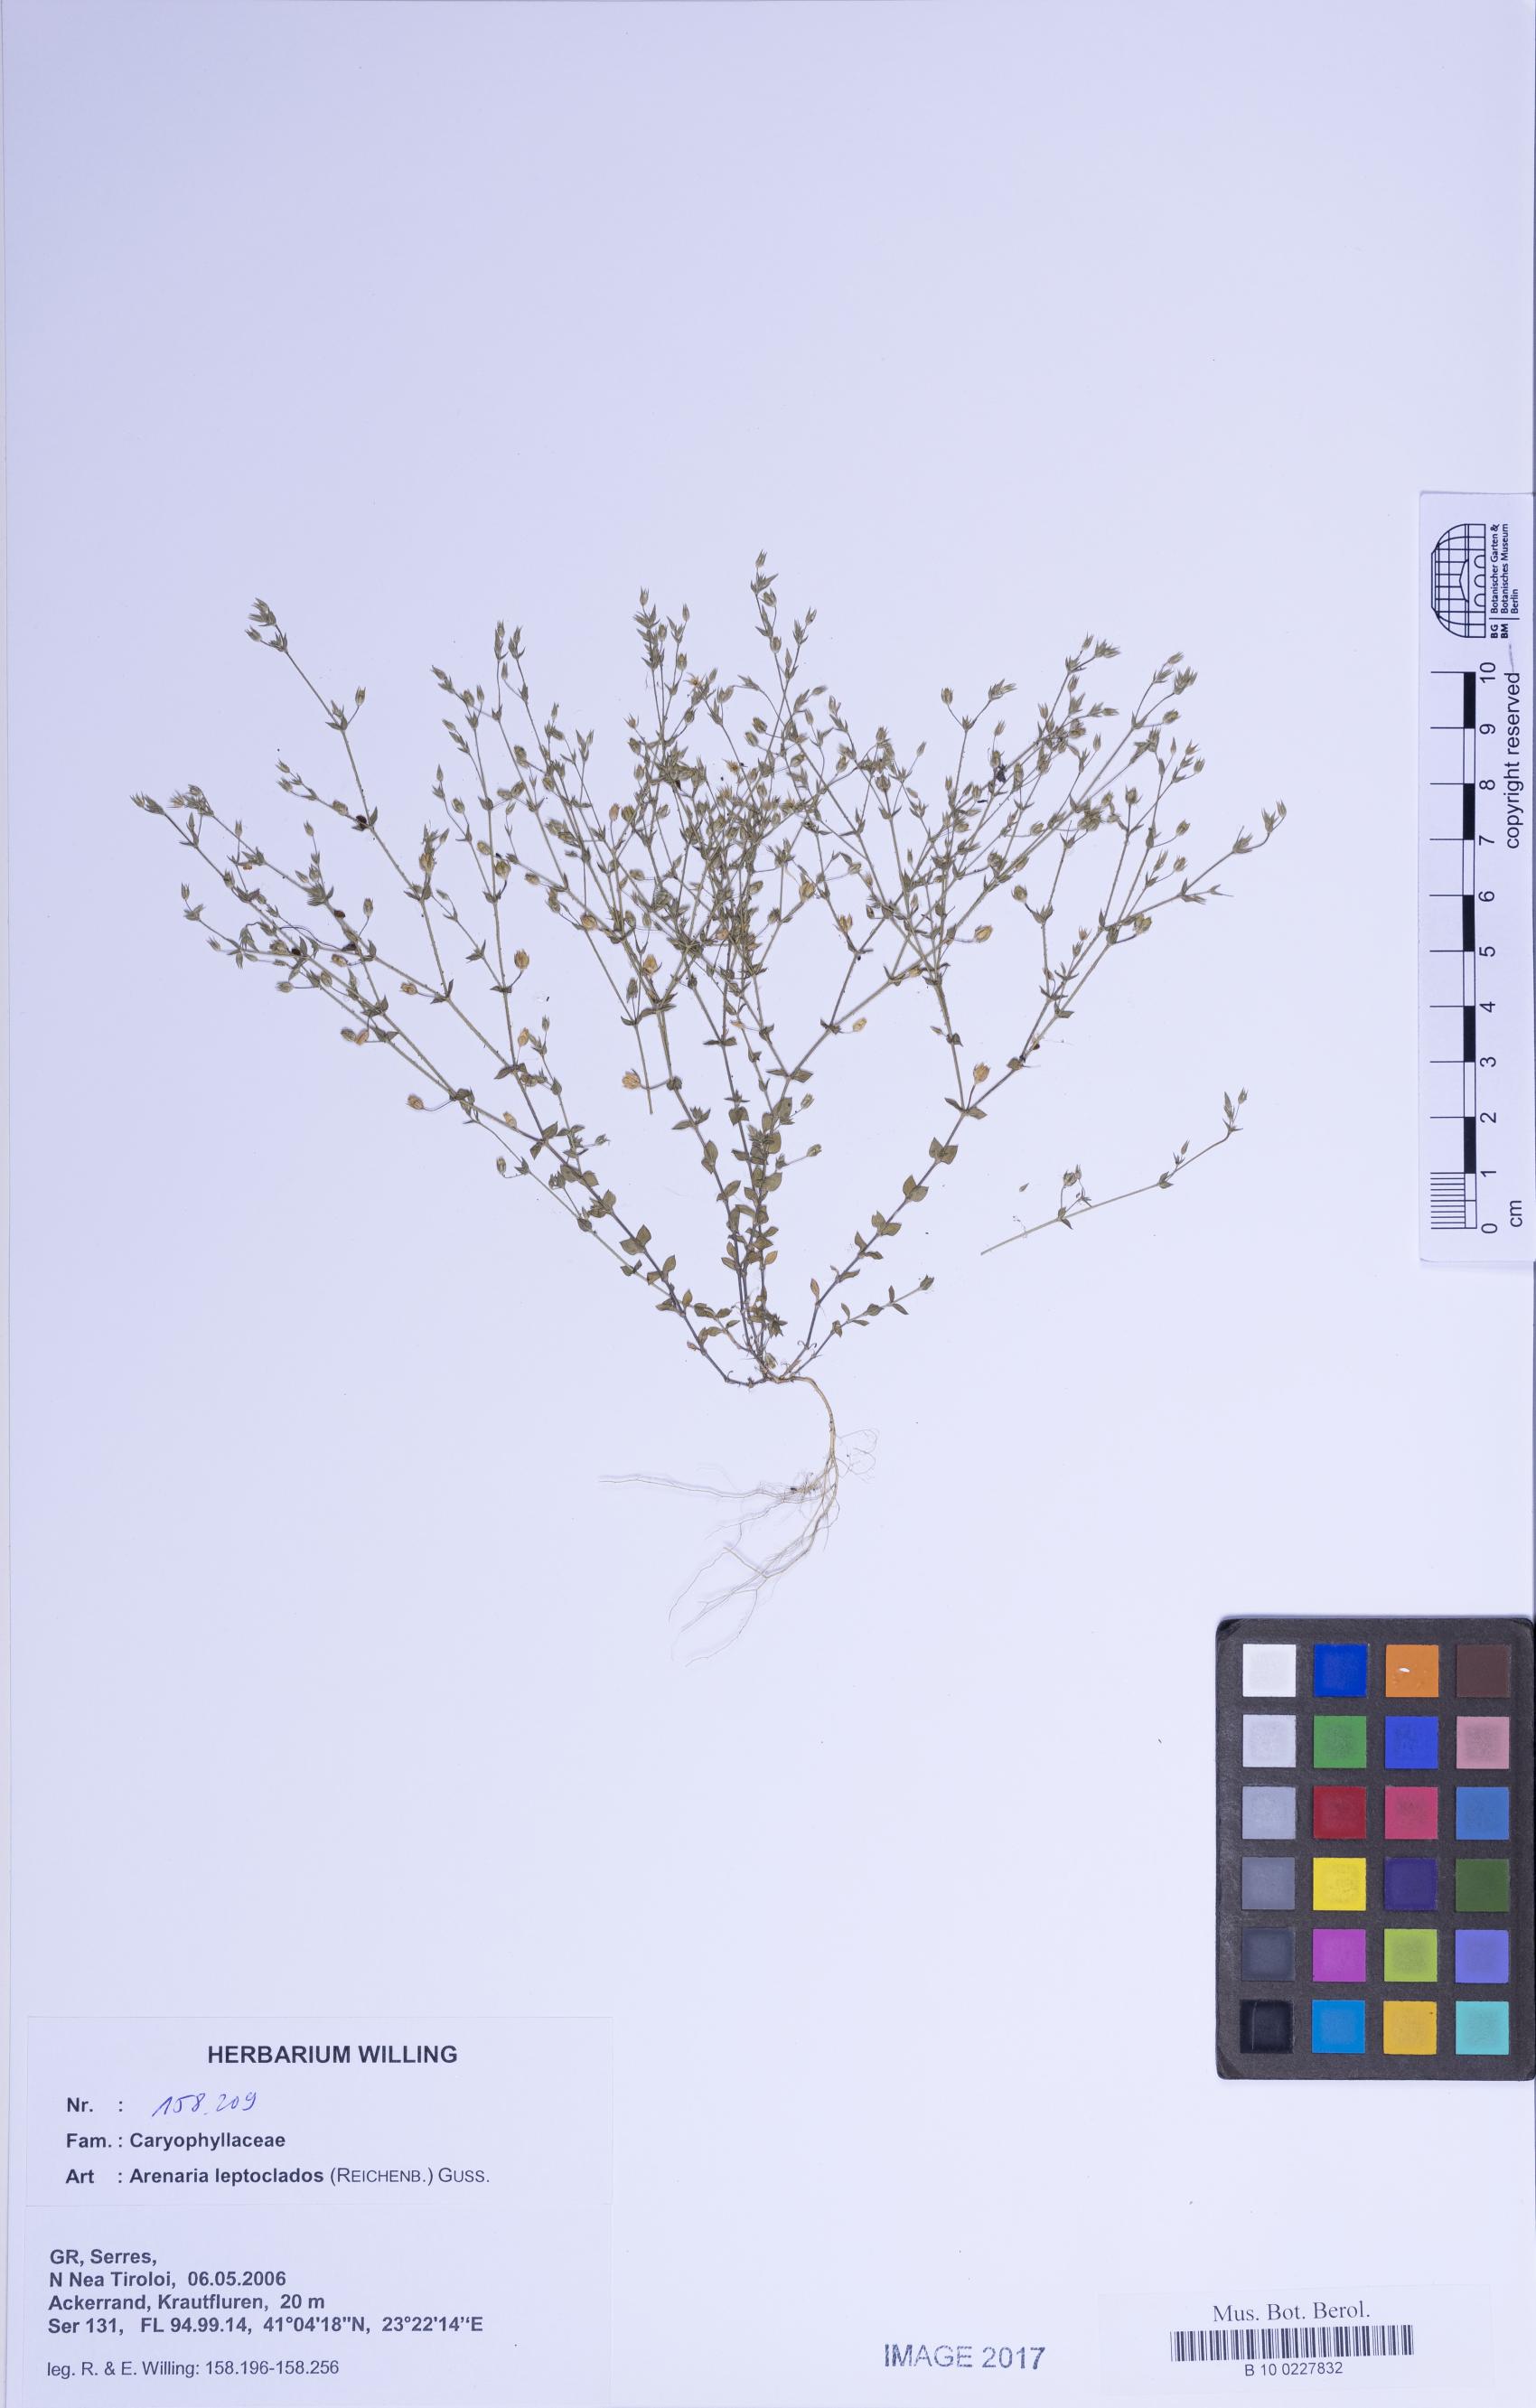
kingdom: Plantae
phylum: Tracheophyta
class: Magnoliopsida
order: Caryophyllales
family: Caryophyllaceae
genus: Arenaria
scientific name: Arenaria leptoclados
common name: Thyme-leaved sandwort
